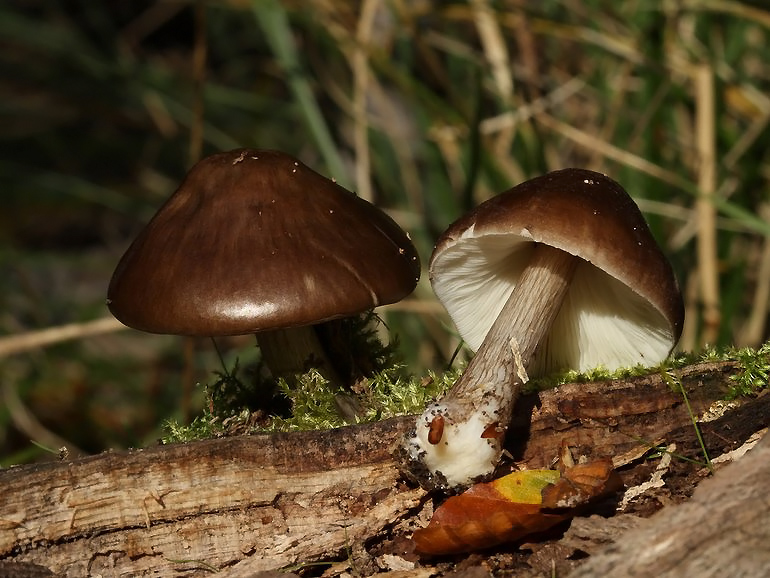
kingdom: Fungi
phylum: Basidiomycota
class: Agaricomycetes
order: Agaricales
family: Pluteaceae
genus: Pluteus
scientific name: Pluteus cervinus
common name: sodfarvet skærmhat
